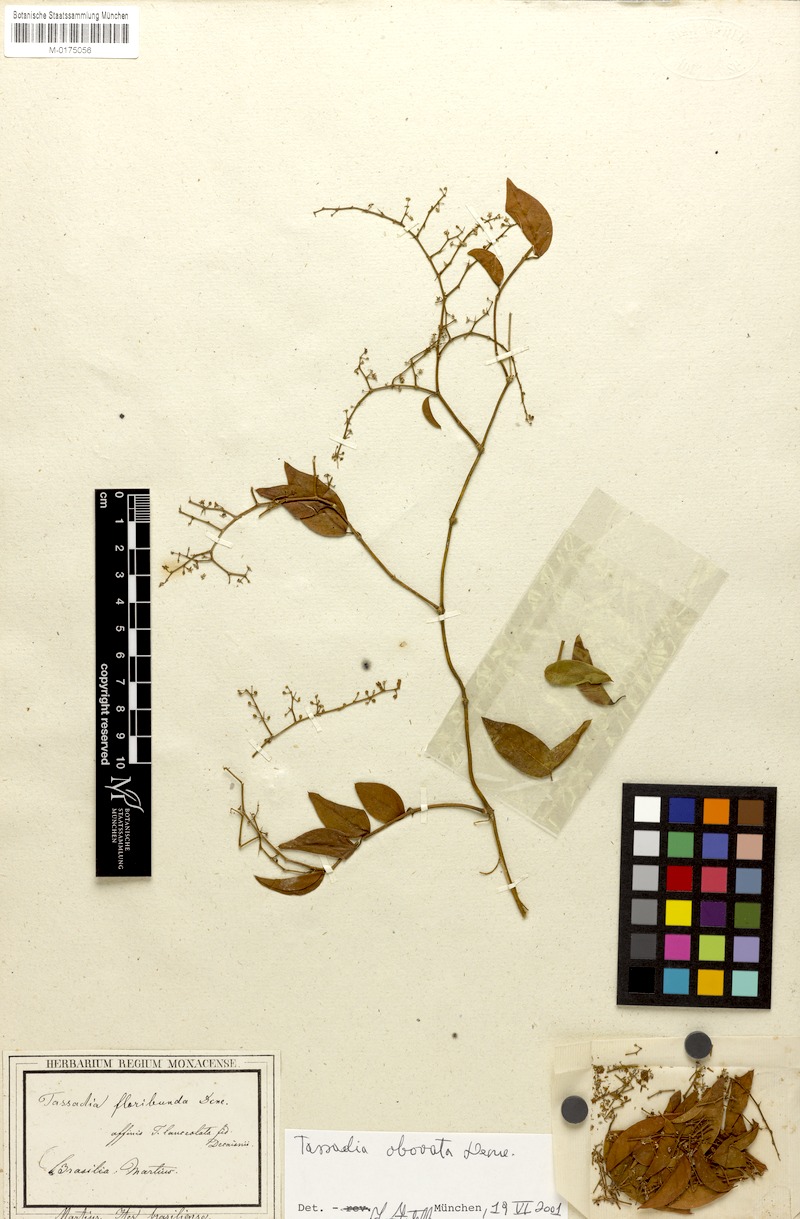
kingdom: Plantae
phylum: Tracheophyta
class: Magnoliopsida
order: Gentianales
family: Apocynaceae
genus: Tassadia
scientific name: Tassadia obovata
